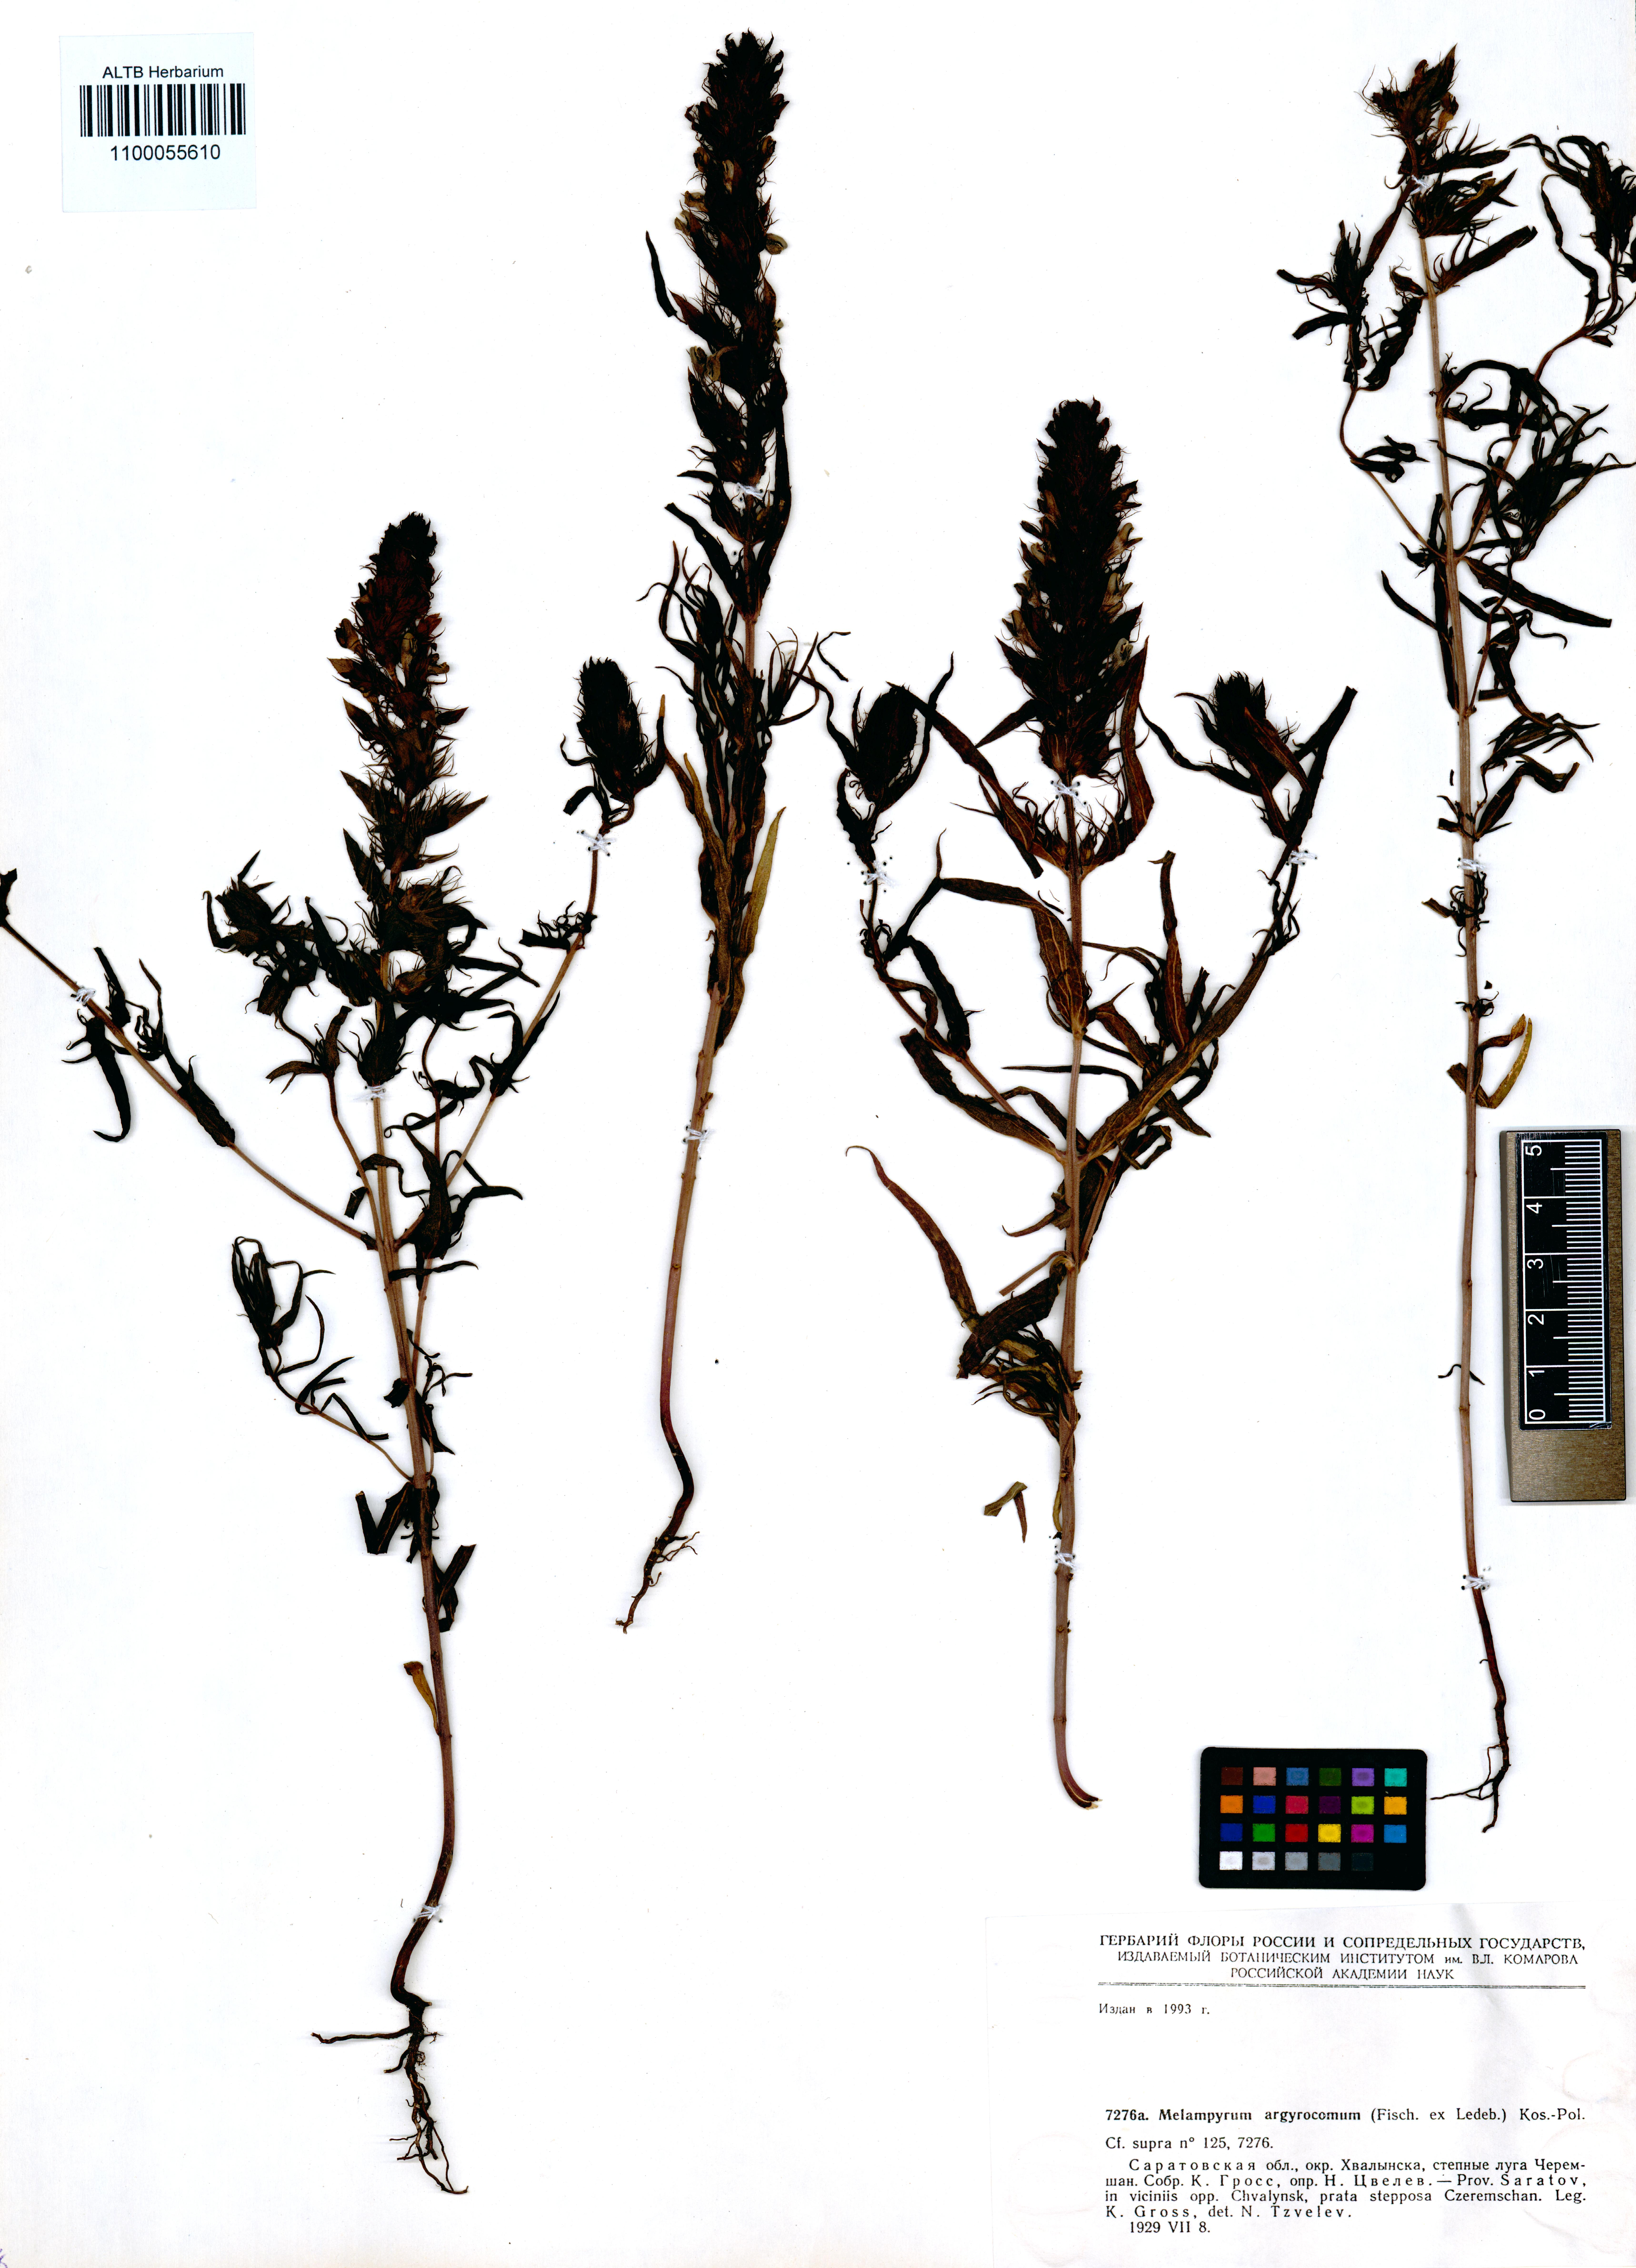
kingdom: Plantae
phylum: Tracheophyta
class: Magnoliopsida
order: Lamiales
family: Orobanchaceae
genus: Melampyrum
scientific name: Melampyrum arvense
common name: Field cow-wheat
